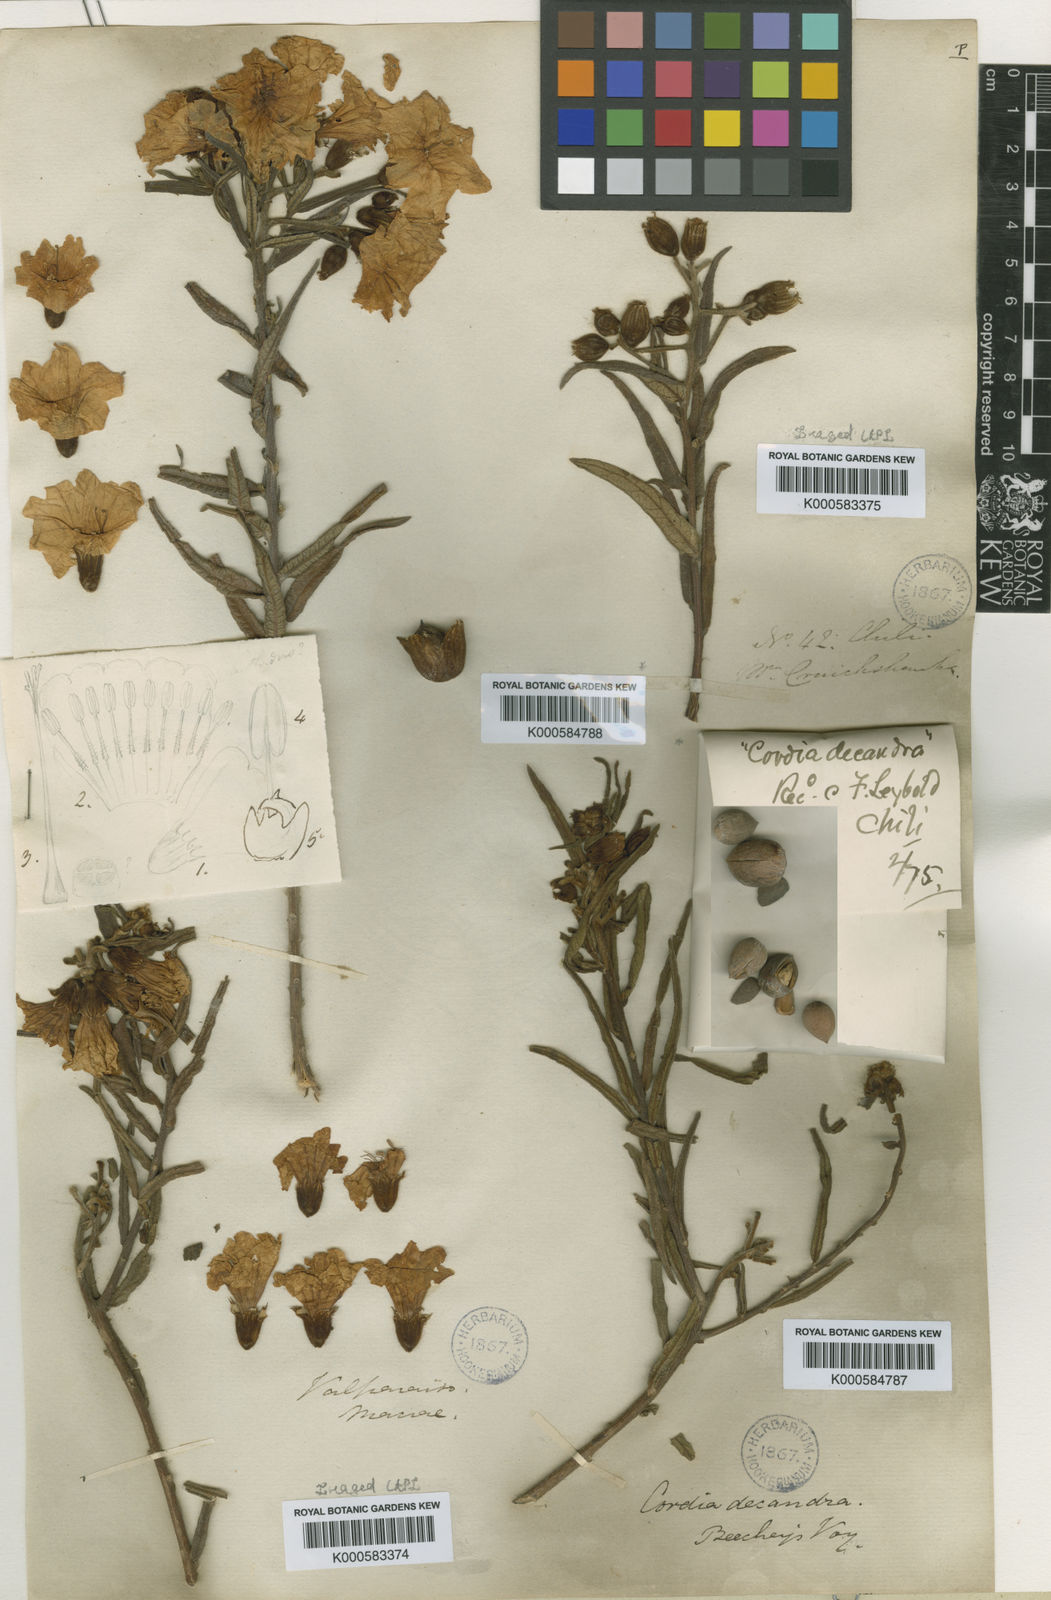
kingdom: Plantae
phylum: Tracheophyta
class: Magnoliopsida
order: Boraginales
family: Cordiaceae
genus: Cordia
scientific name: Cordia decandra
